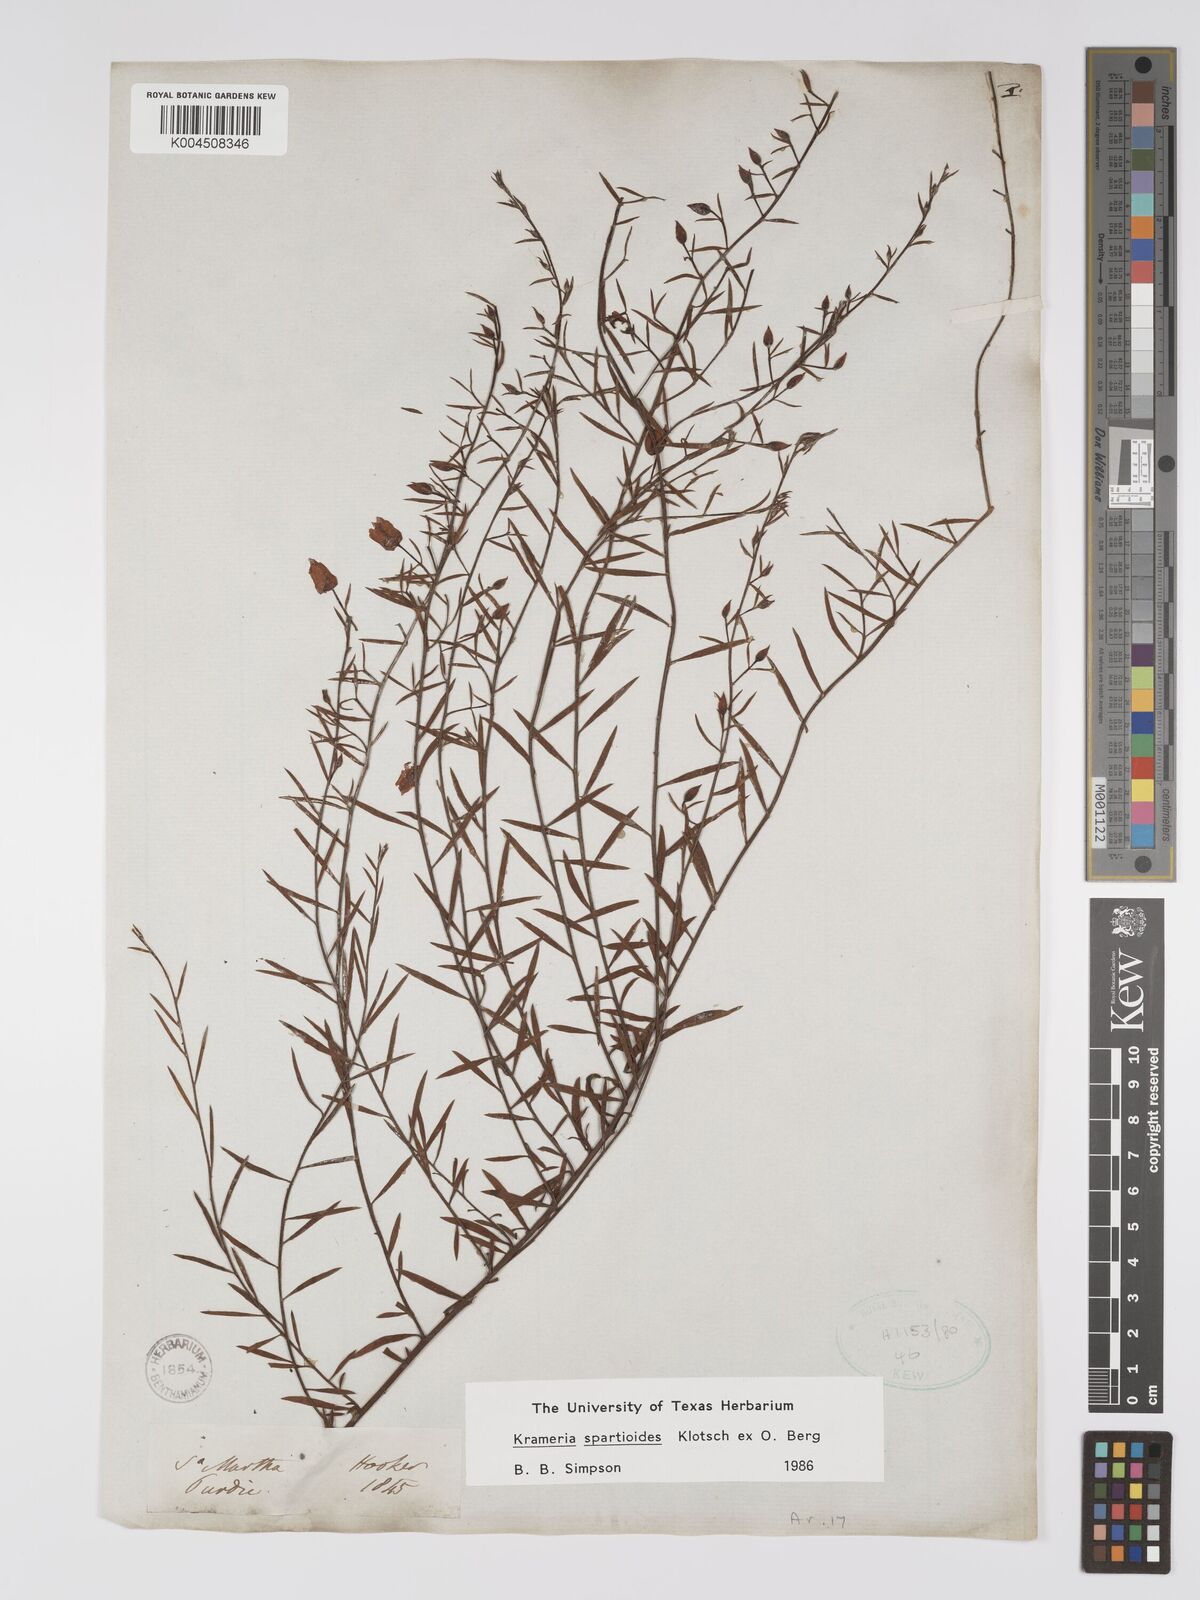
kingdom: Plantae
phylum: Tracheophyta
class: Magnoliopsida
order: Zygophyllales
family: Krameriaceae
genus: Krameria
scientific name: Krameria spartioides
